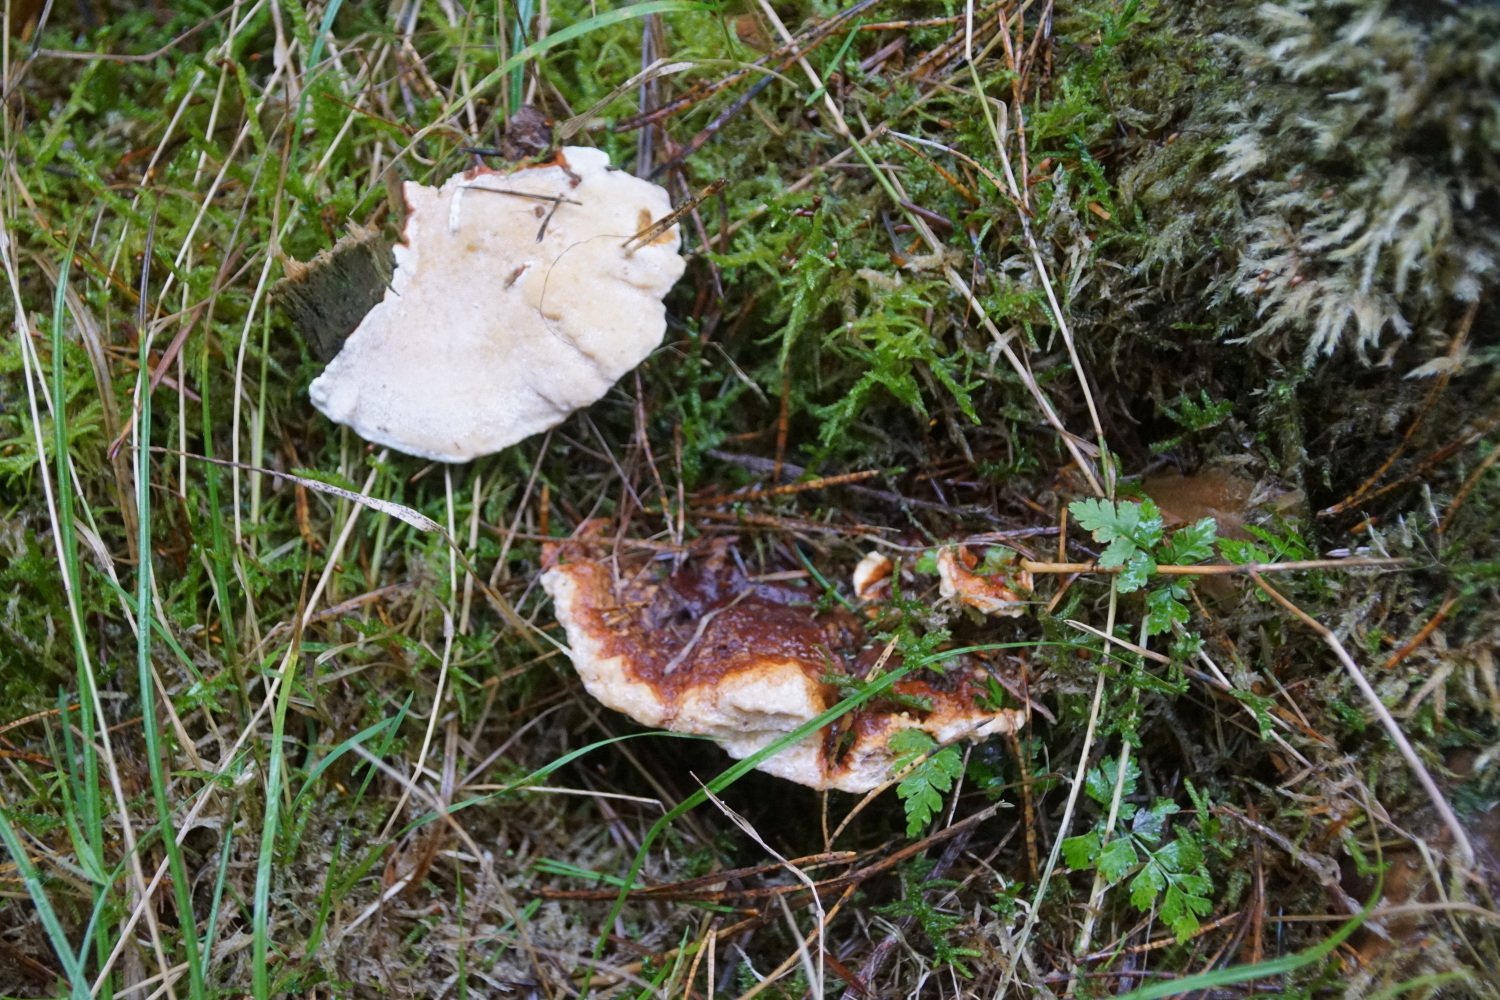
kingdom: Fungi
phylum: Basidiomycota
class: Agaricomycetes
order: Russulales
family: Bondarzewiaceae
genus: Heterobasidion
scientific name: Heterobasidion annosum
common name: almindelig rodfordærver
